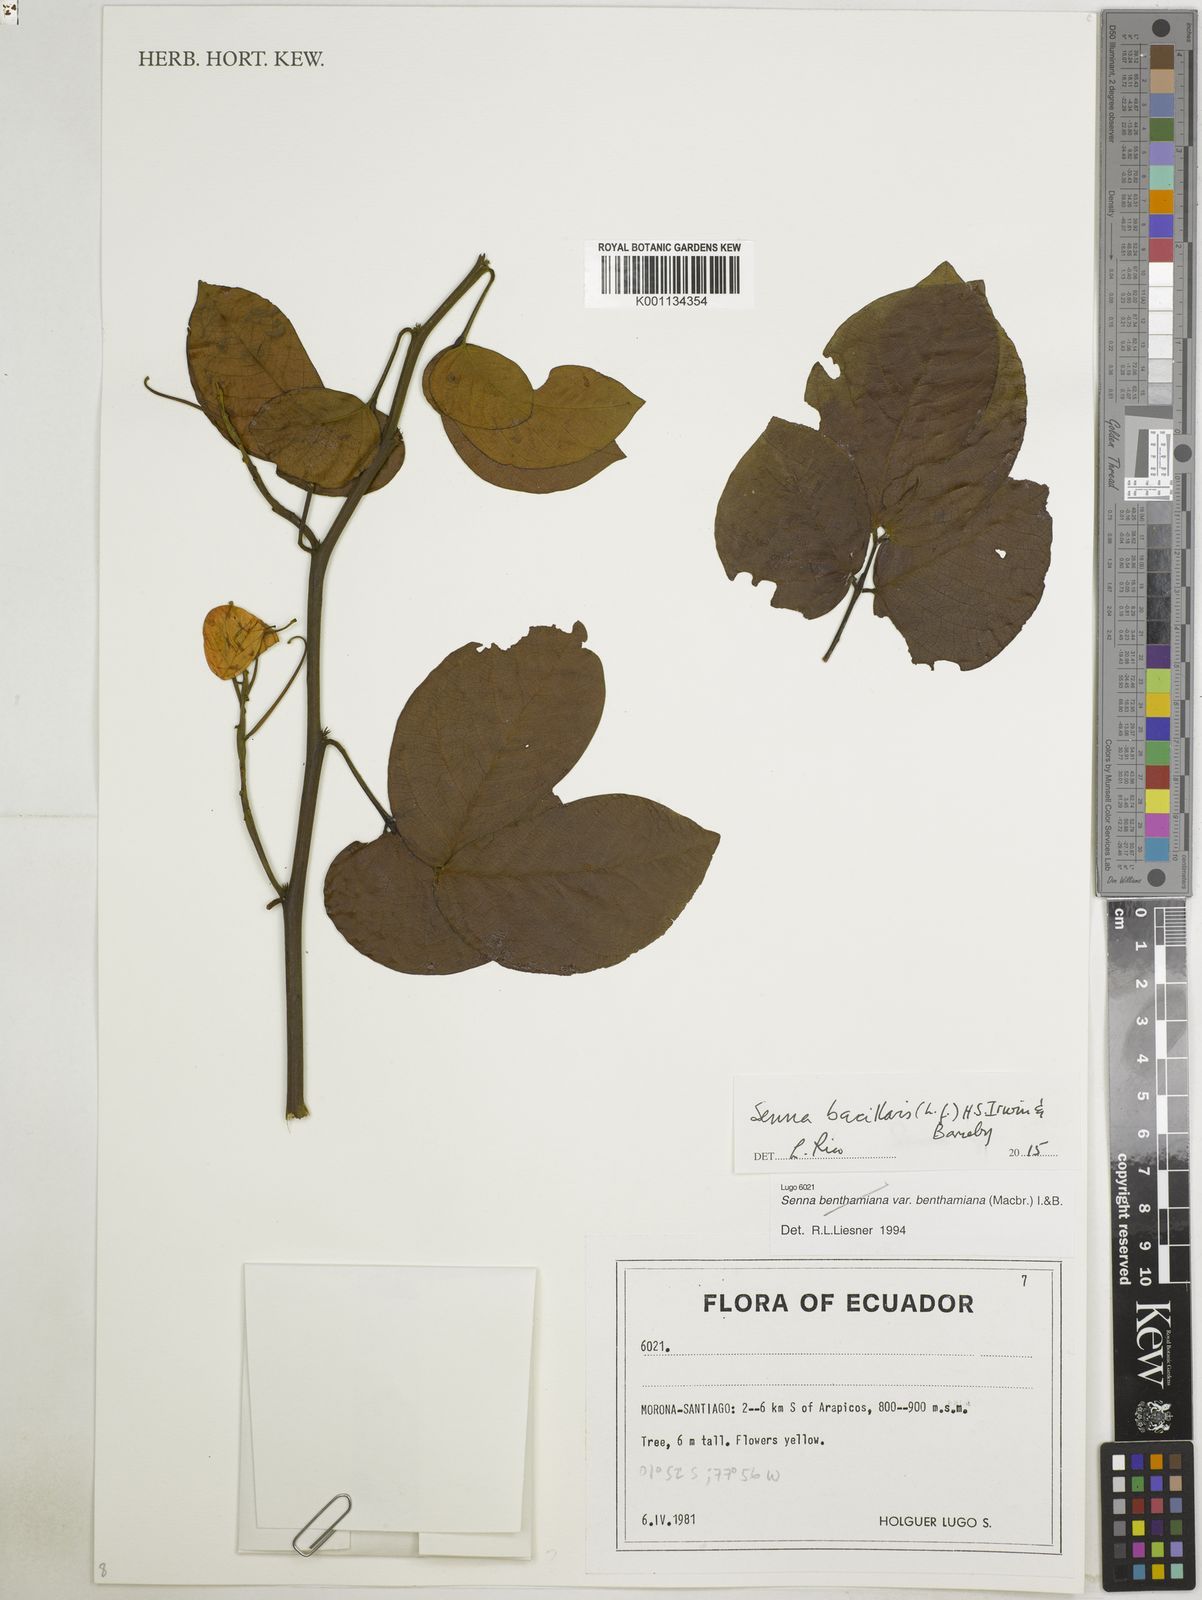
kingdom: Plantae
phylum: Tracheophyta
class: Magnoliopsida
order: Fabales
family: Fabaceae
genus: Senna
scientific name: Senna bacillaris
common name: West indian showertree
